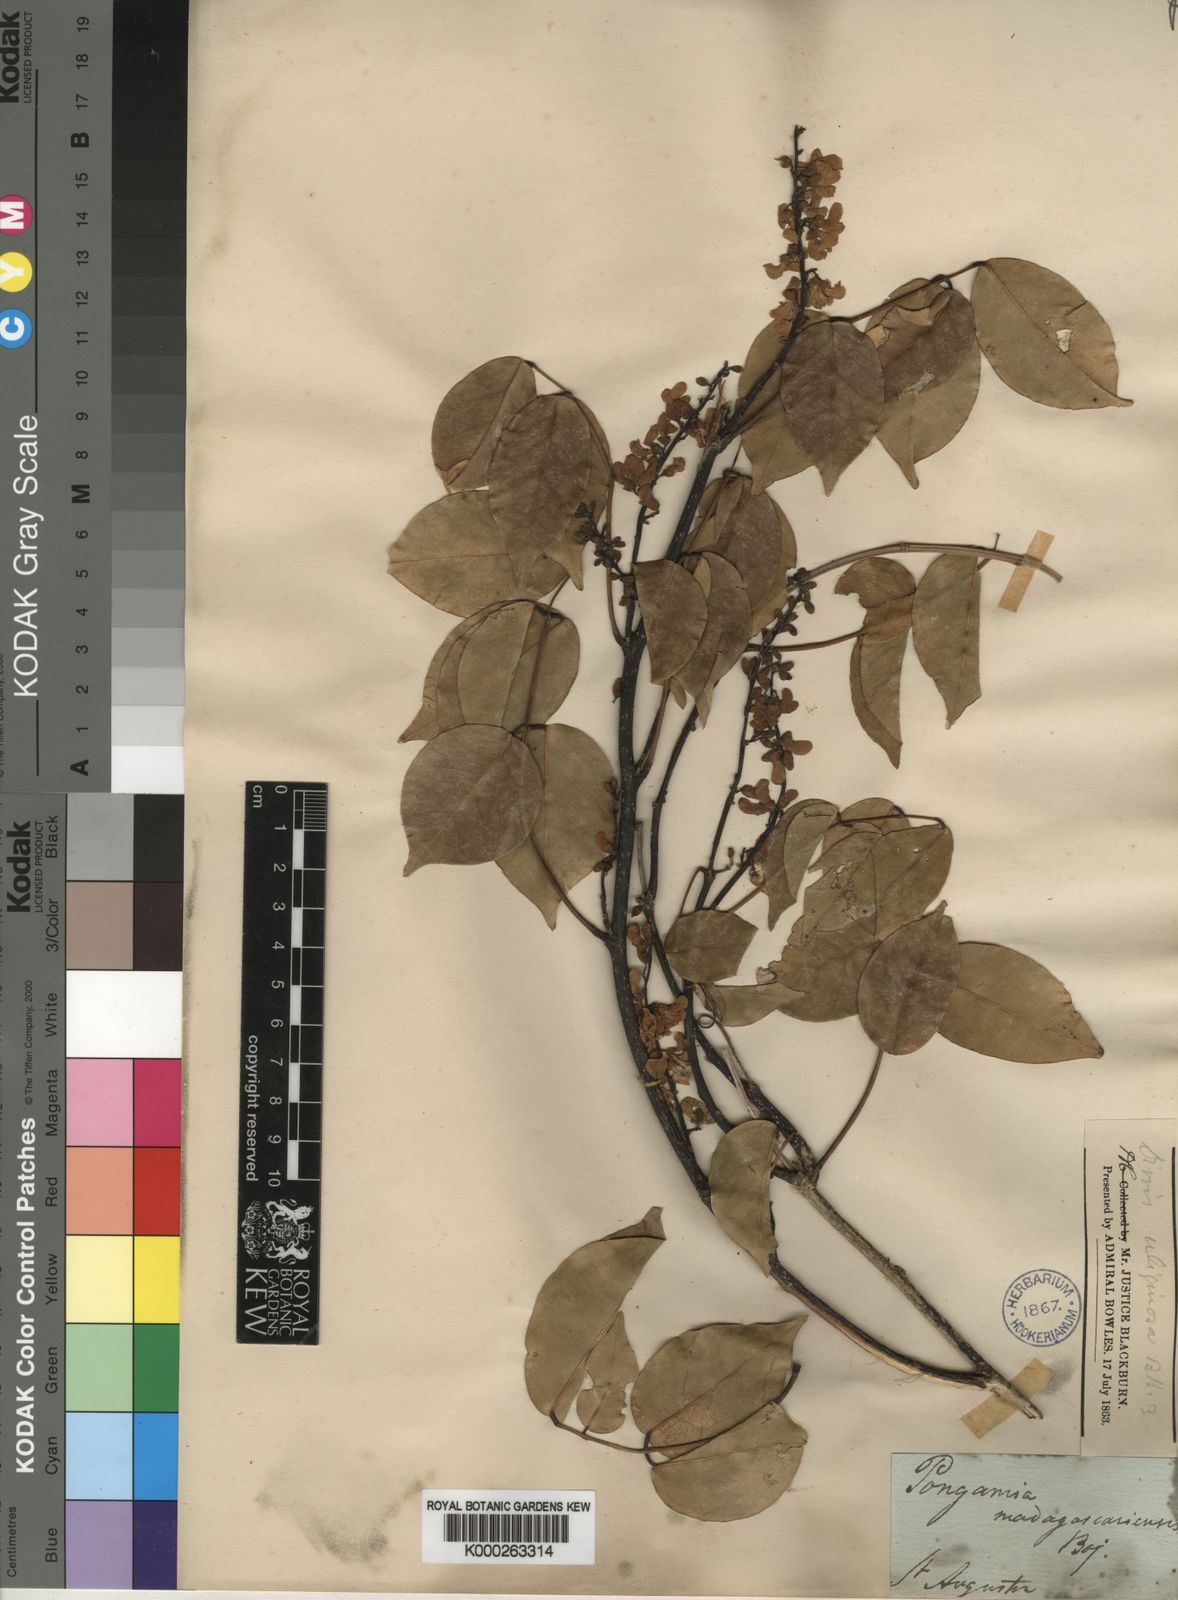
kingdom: Plantae
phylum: Tracheophyta
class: Magnoliopsida
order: Fabales
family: Fabaceae
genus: Derris
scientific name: Derris trifoliata
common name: Three-leaf derris
